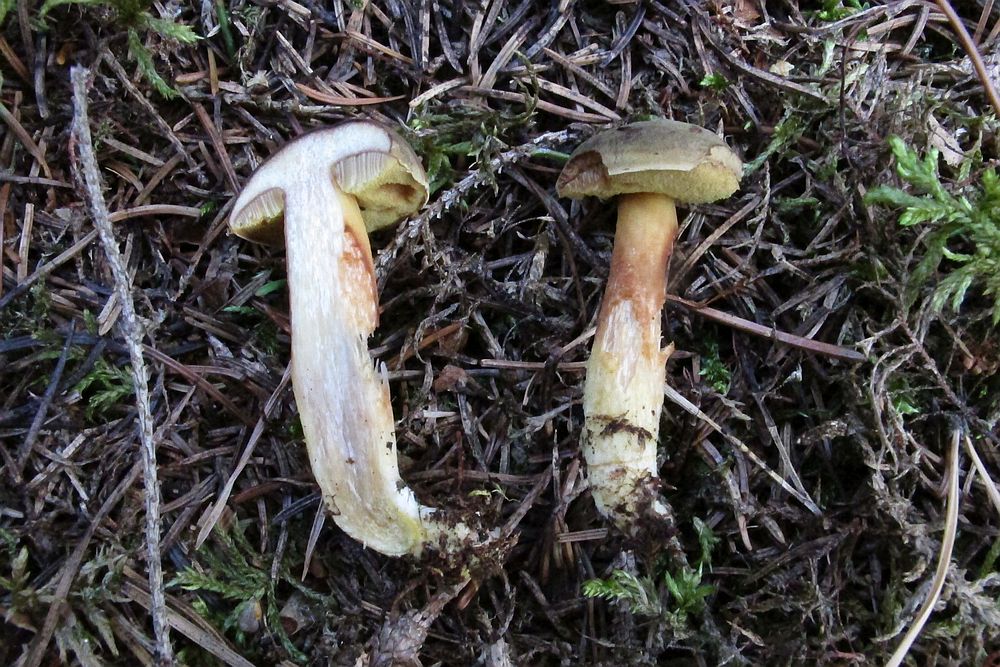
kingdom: Fungi
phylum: Basidiomycota
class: Agaricomycetes
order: Boletales
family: Boletaceae
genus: Xerocomus
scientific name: Xerocomus ferrugineus
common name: vaskeskinds-rørhat
